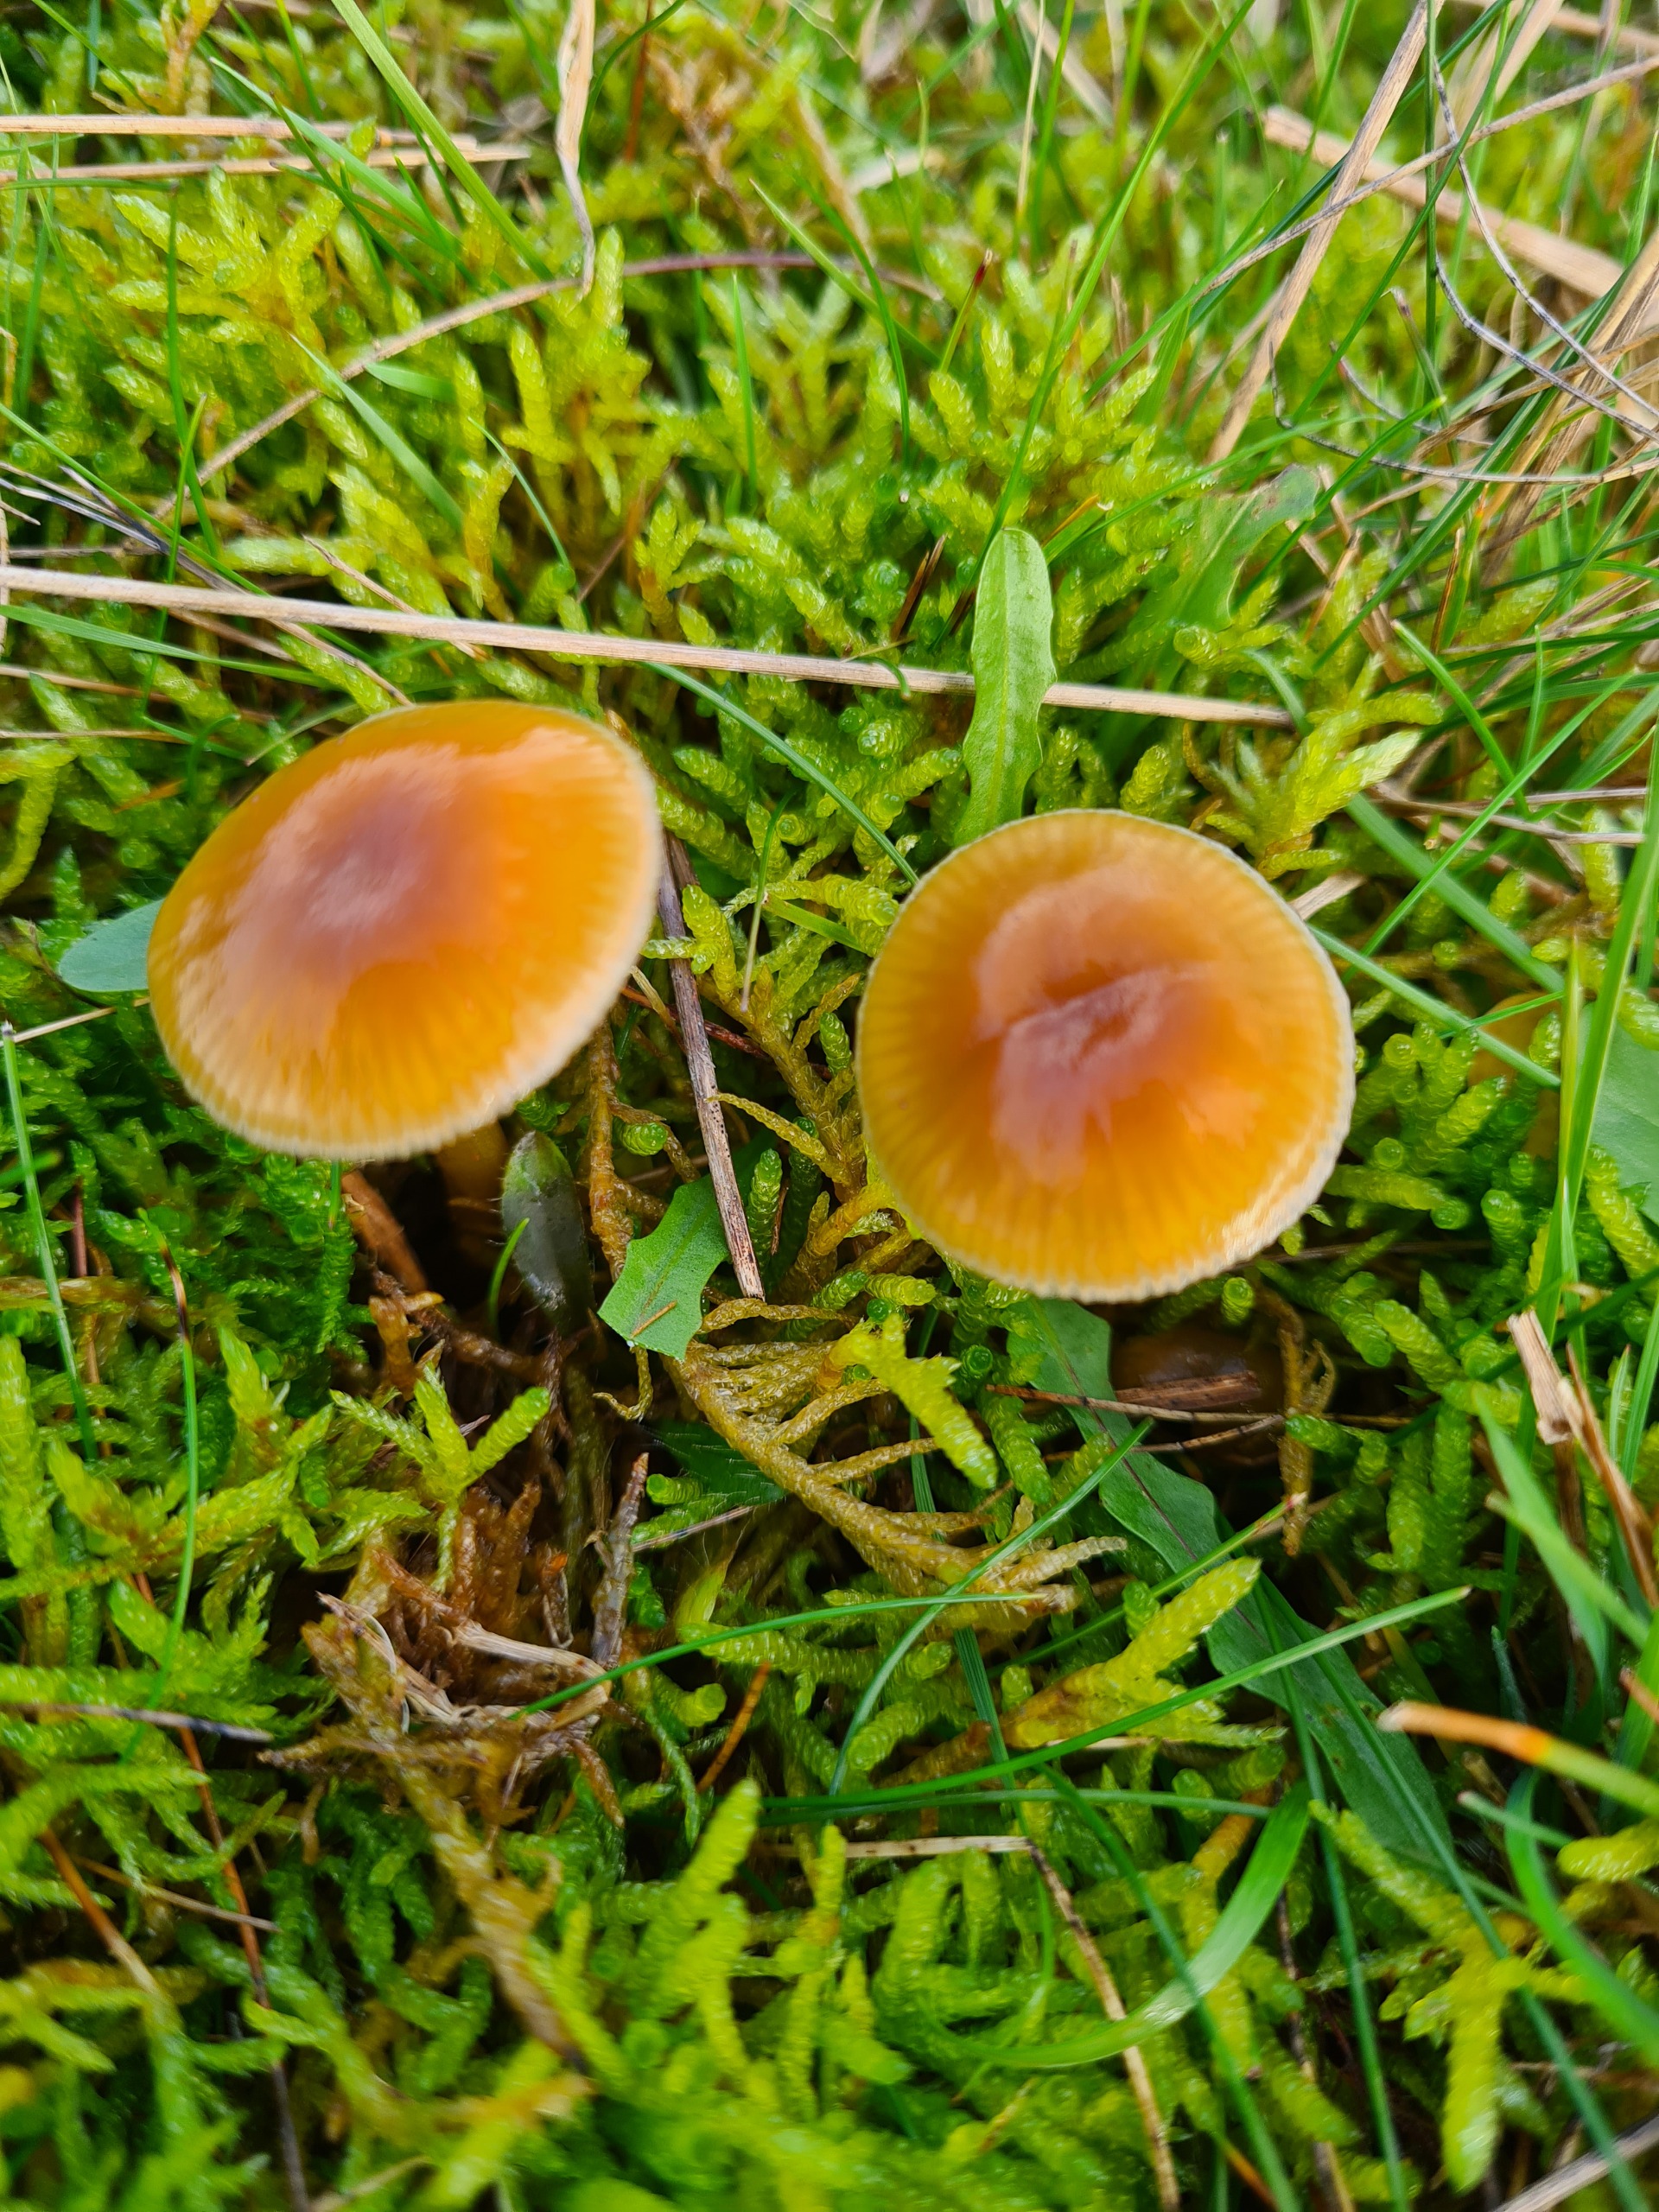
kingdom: Fungi
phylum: Basidiomycota
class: Agaricomycetes
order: Agaricales
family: Hygrophoraceae
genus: Gliophorus
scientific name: Gliophorus laetus
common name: Brusk-vokshat
